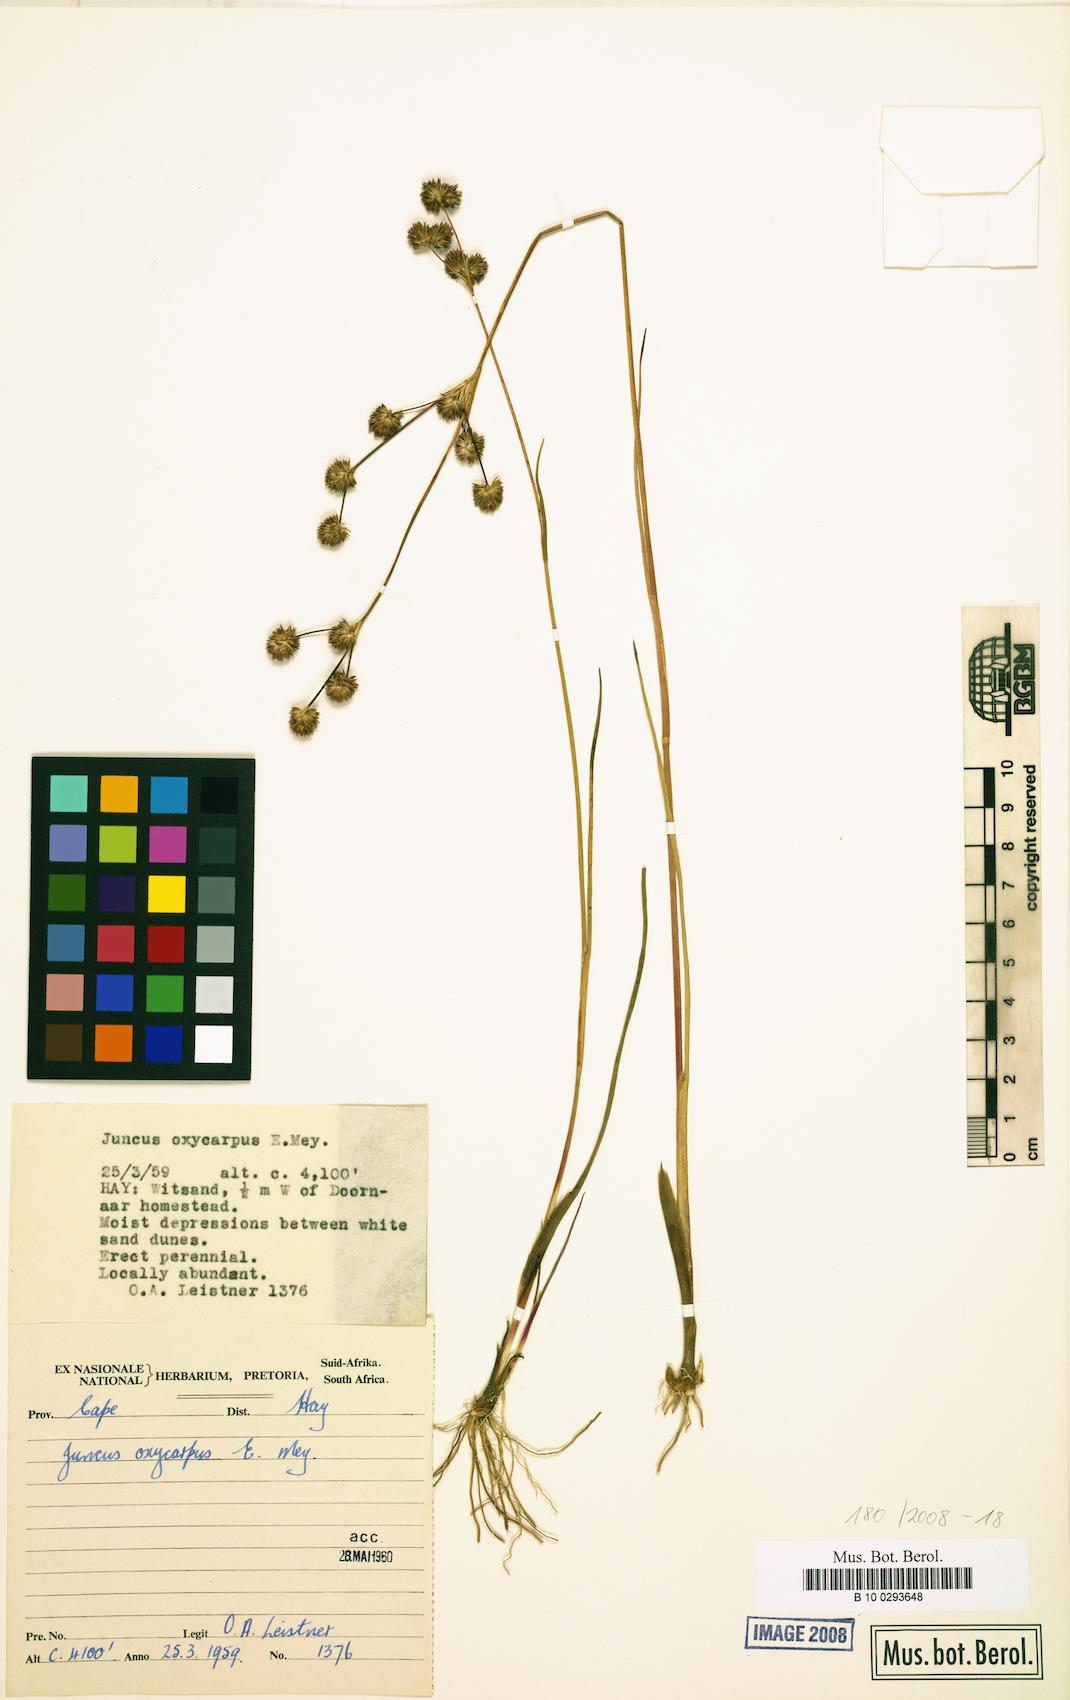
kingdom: Plantae
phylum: Tracheophyta
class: Liliopsida
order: Poales
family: Juncaceae
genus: Juncus
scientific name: Juncus oxycarpus
